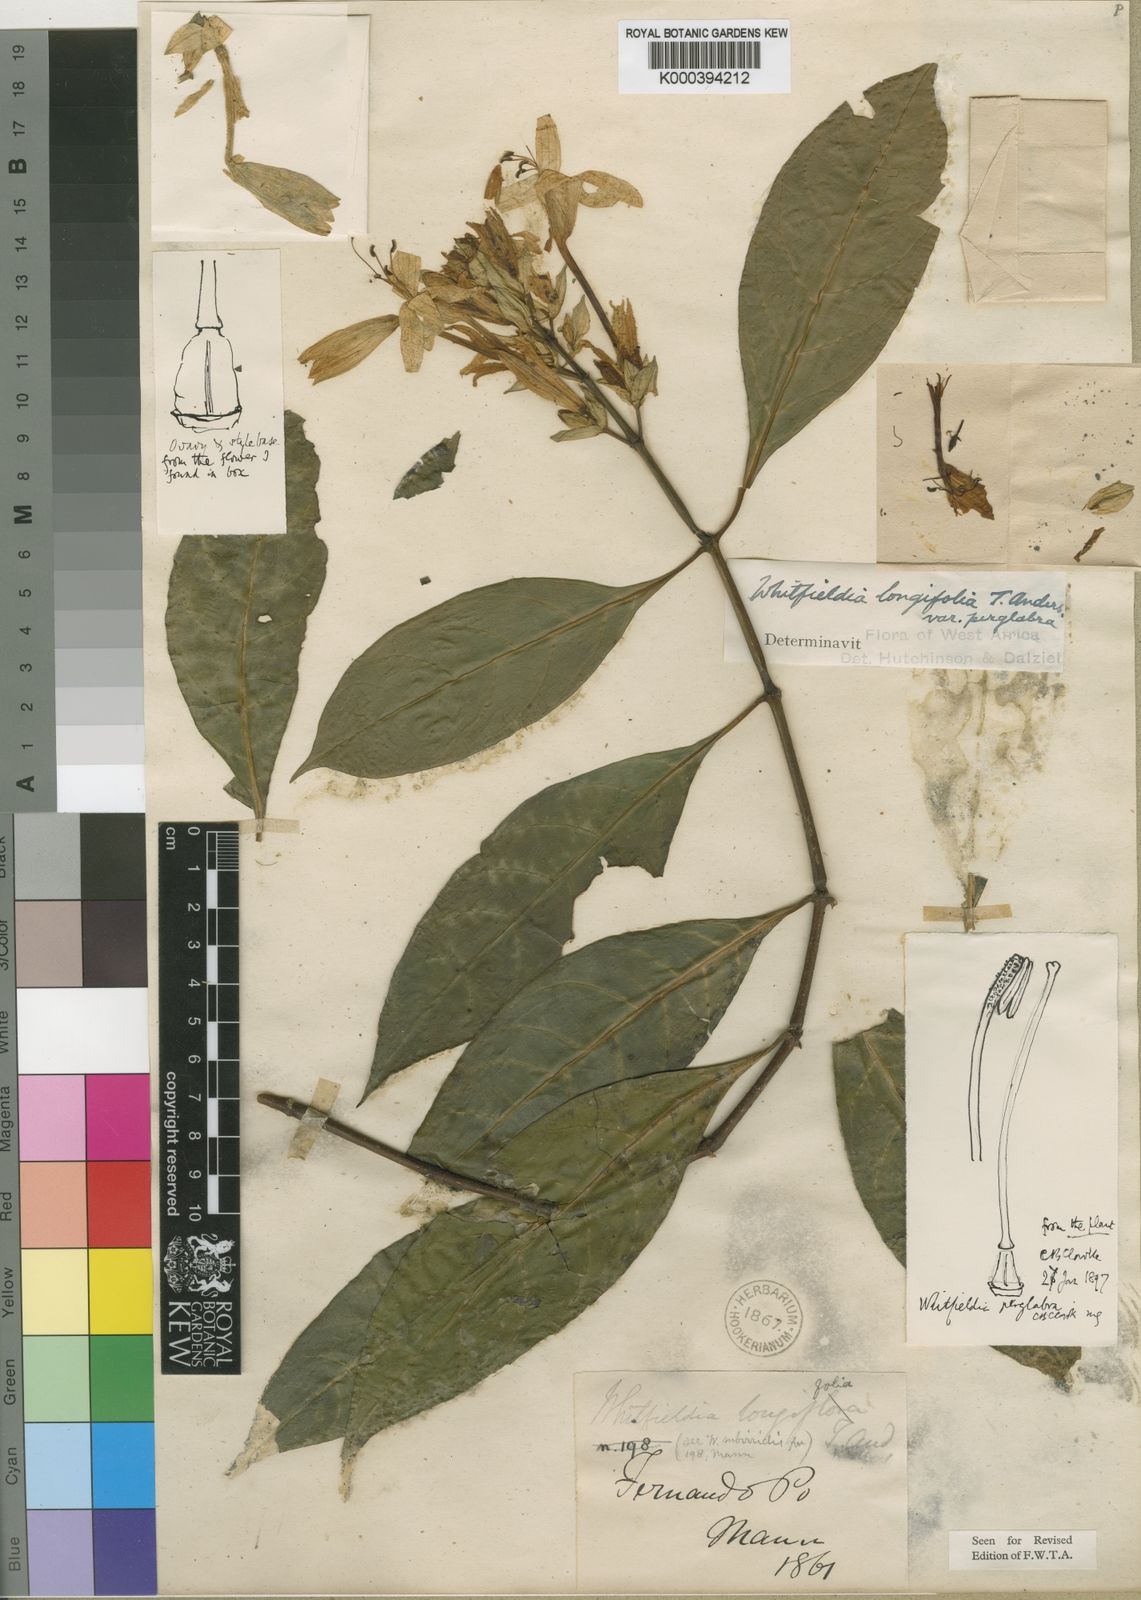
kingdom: Plantae
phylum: Tracheophyta
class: Magnoliopsida
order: Lamiales
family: Acanthaceae
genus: Whitfieldia
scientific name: Whitfieldia elongata
